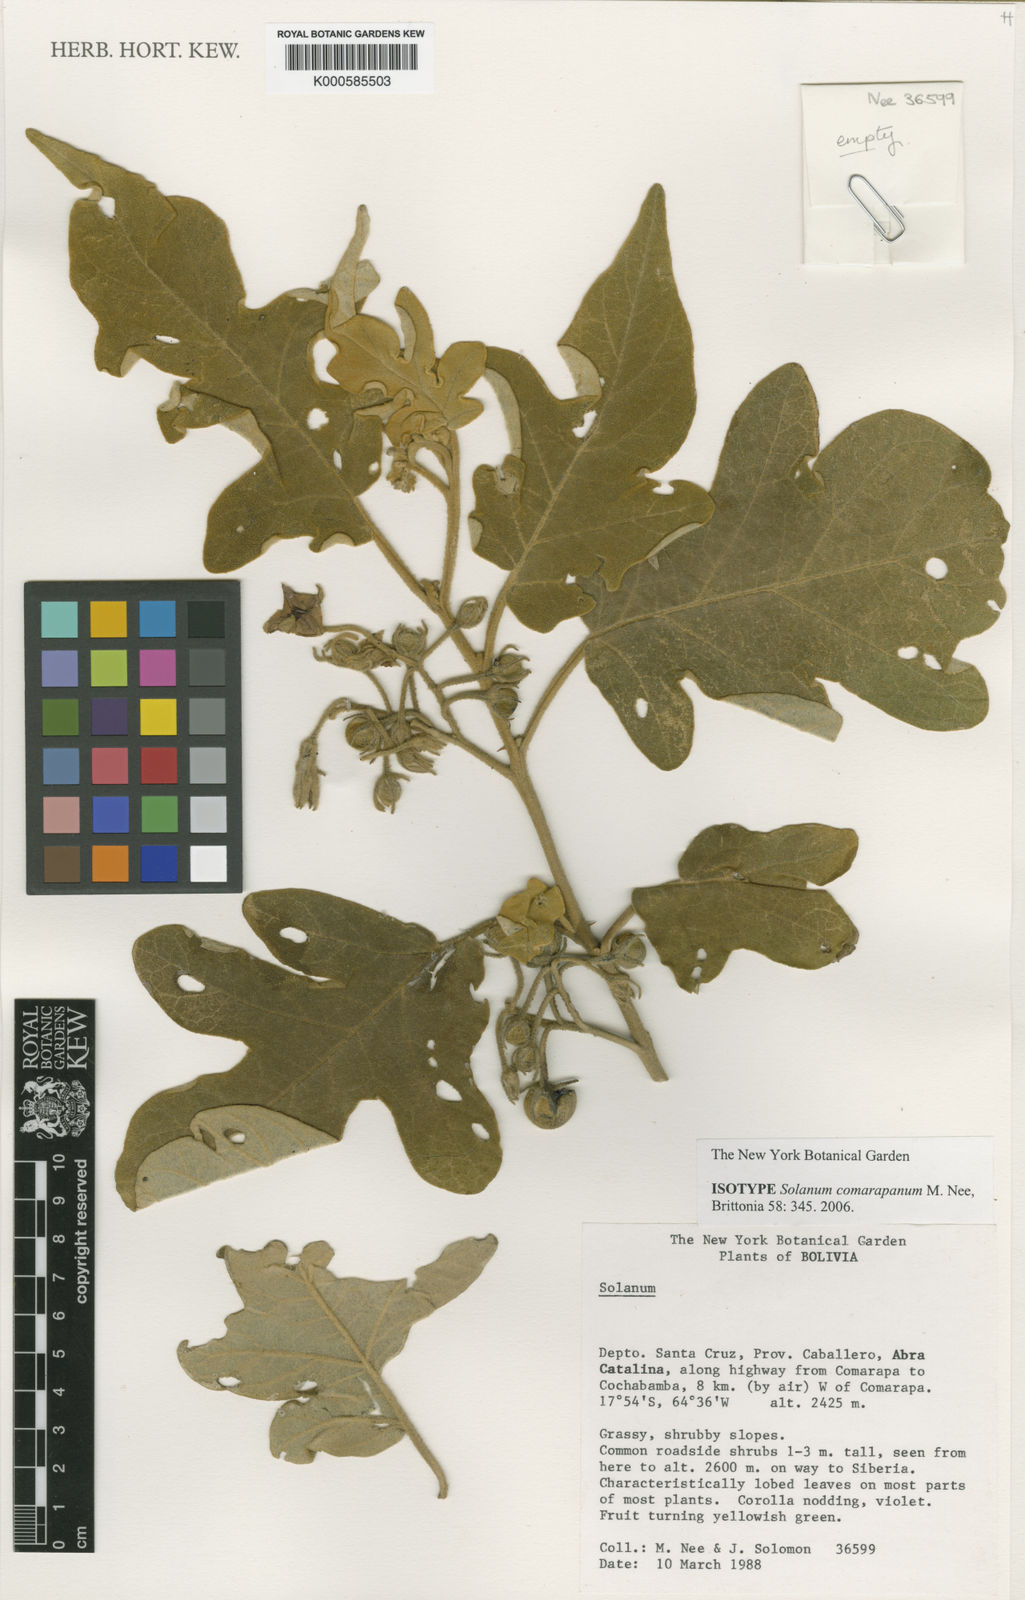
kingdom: Plantae
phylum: Tracheophyta
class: Magnoliopsida
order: Solanales
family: Solanaceae
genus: Solanum
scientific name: Solanum comarapanum
